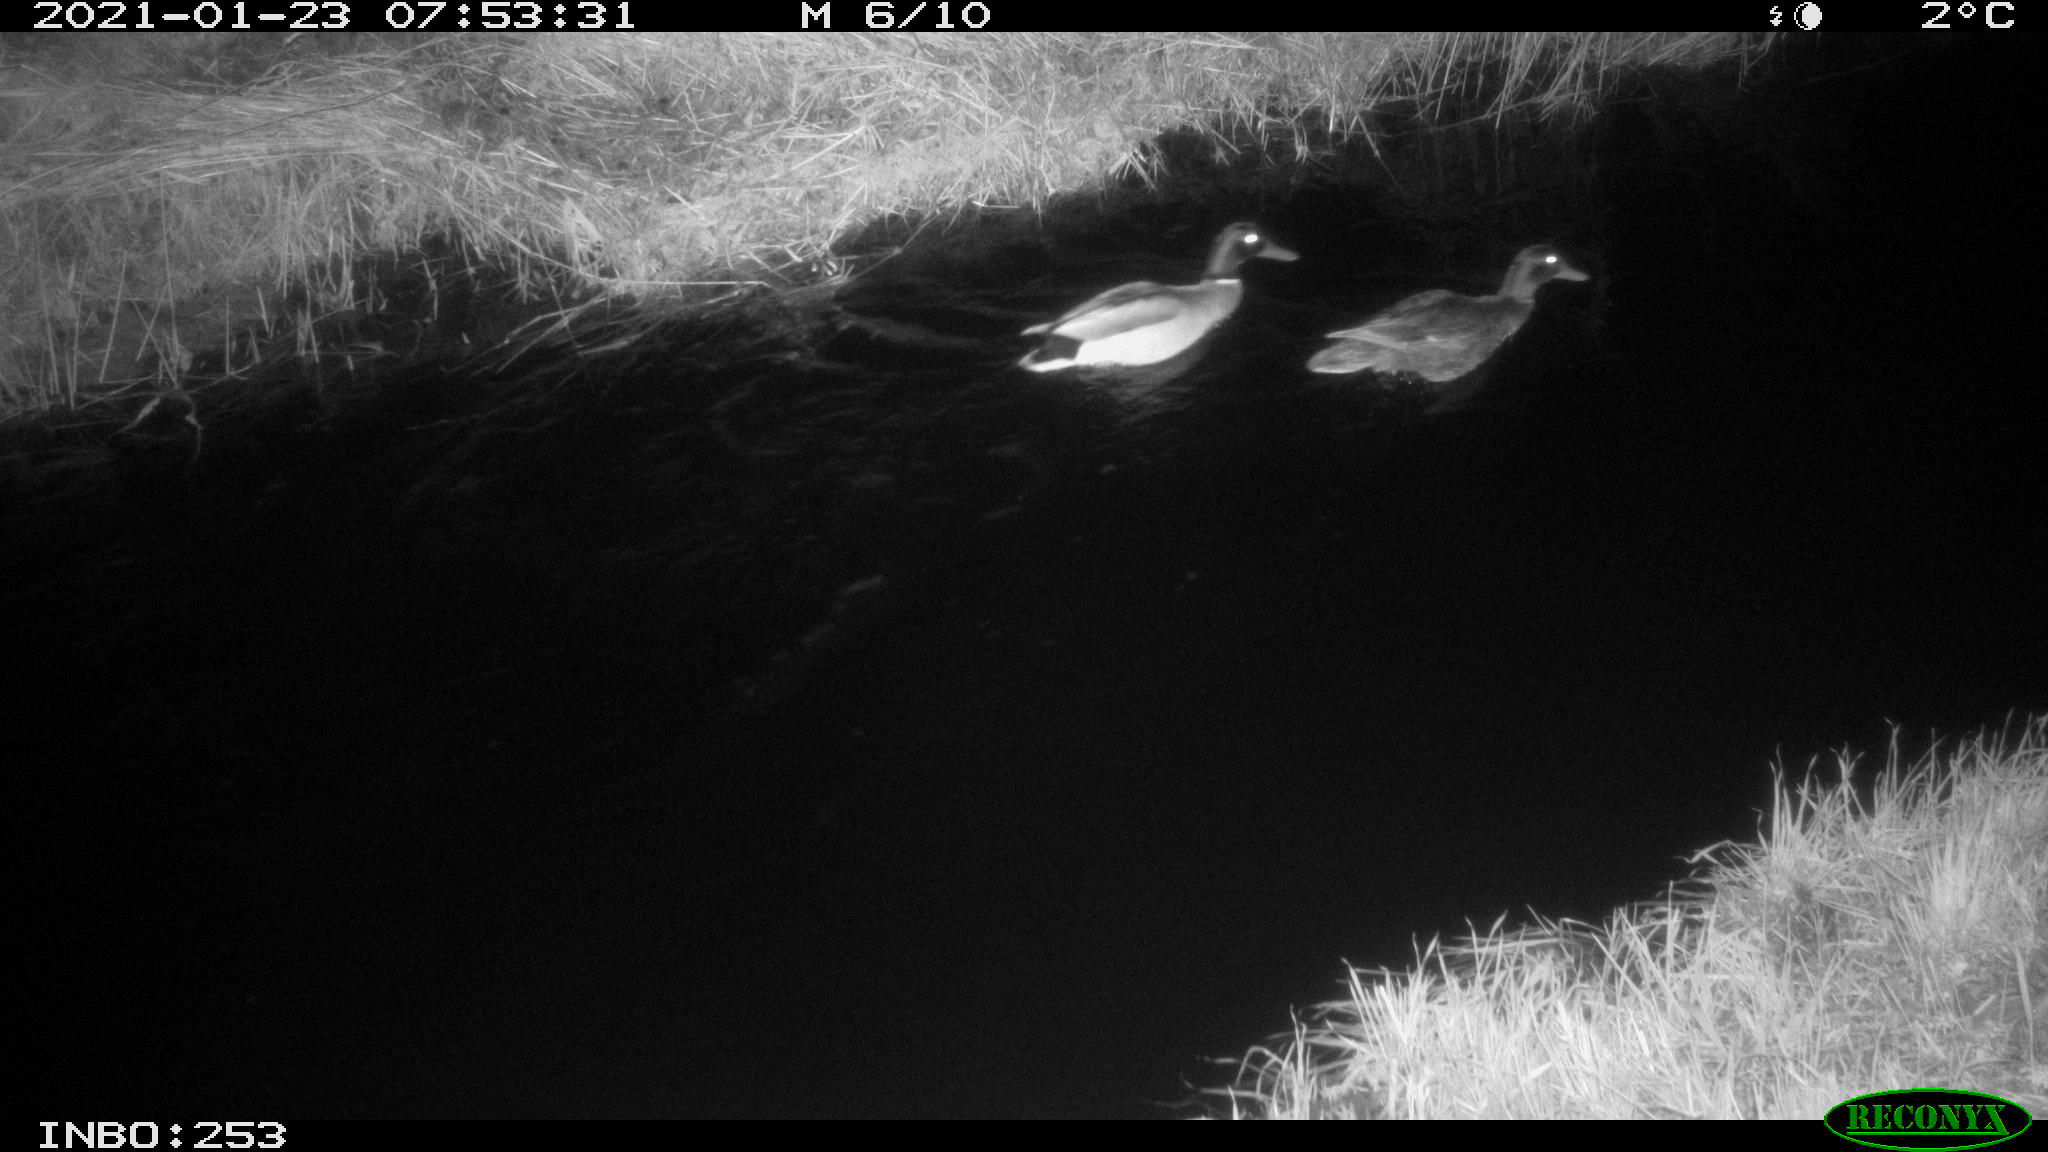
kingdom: Animalia
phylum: Chordata
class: Aves
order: Anseriformes
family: Anatidae
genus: Anas
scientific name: Anas platyrhynchos
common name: Mallard
